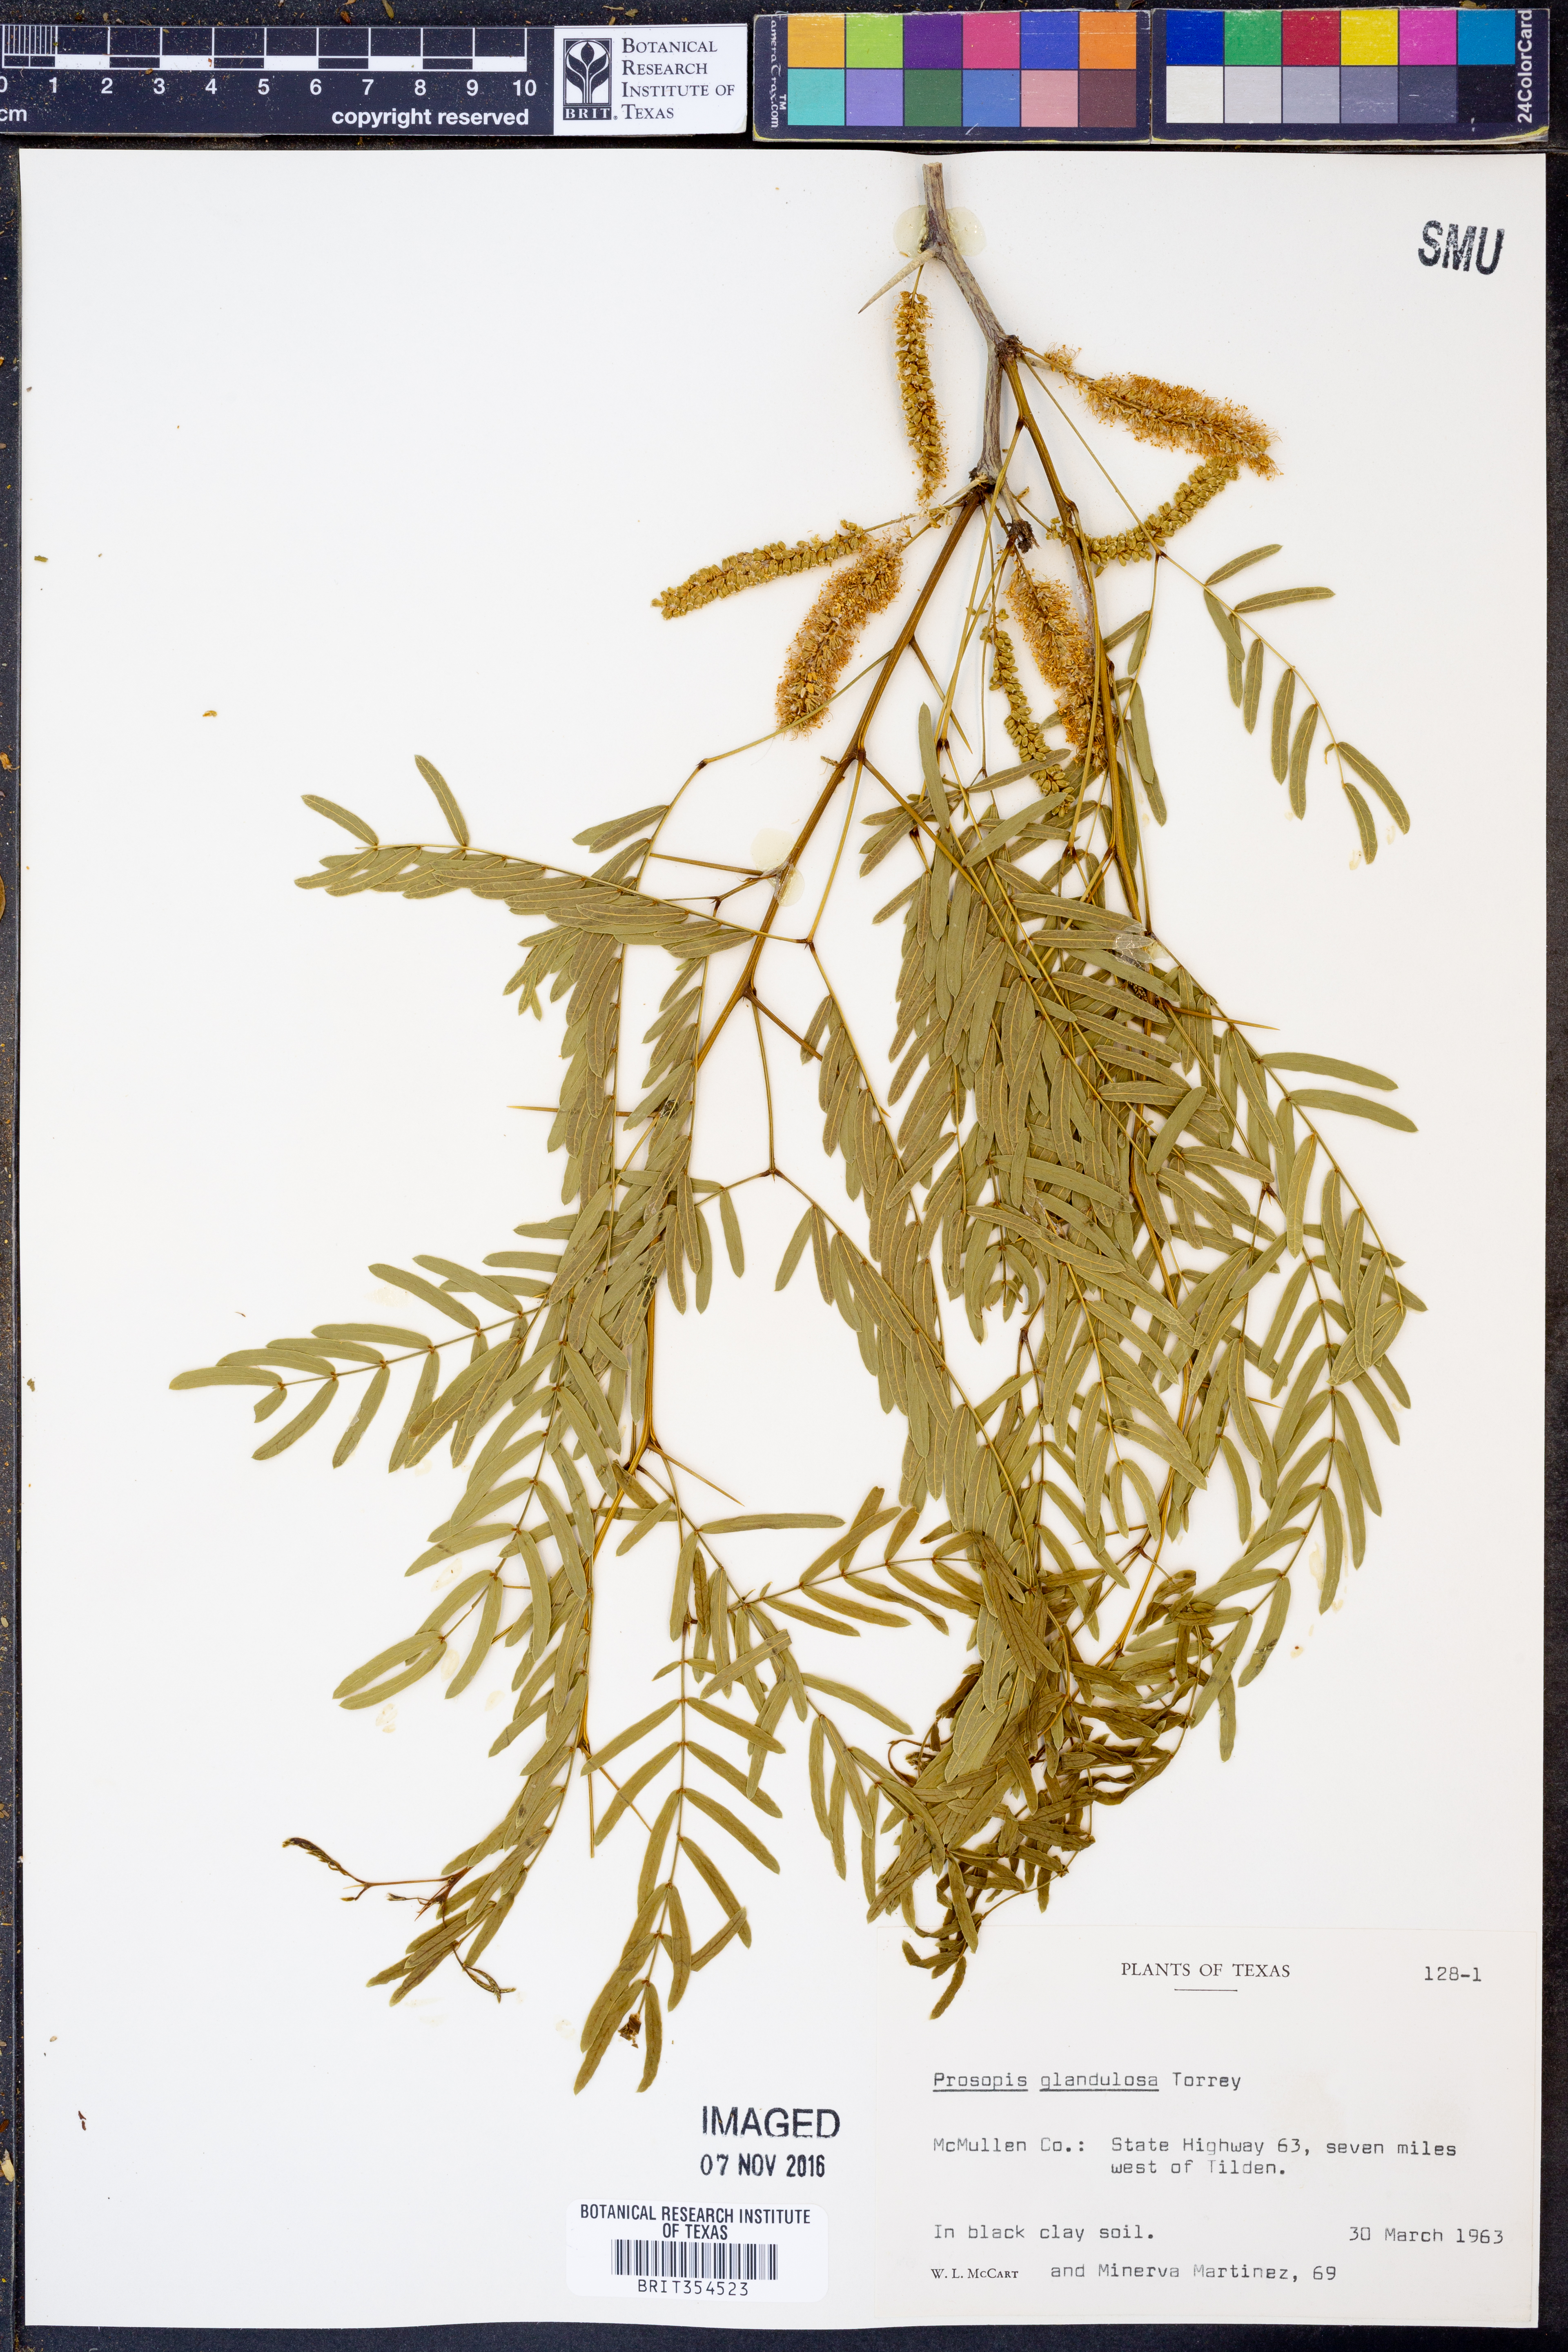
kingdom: Plantae
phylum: Tracheophyta
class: Magnoliopsida
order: Fabales
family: Fabaceae
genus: Prosopis
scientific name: Prosopis glandulosa
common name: Honey mesquite
